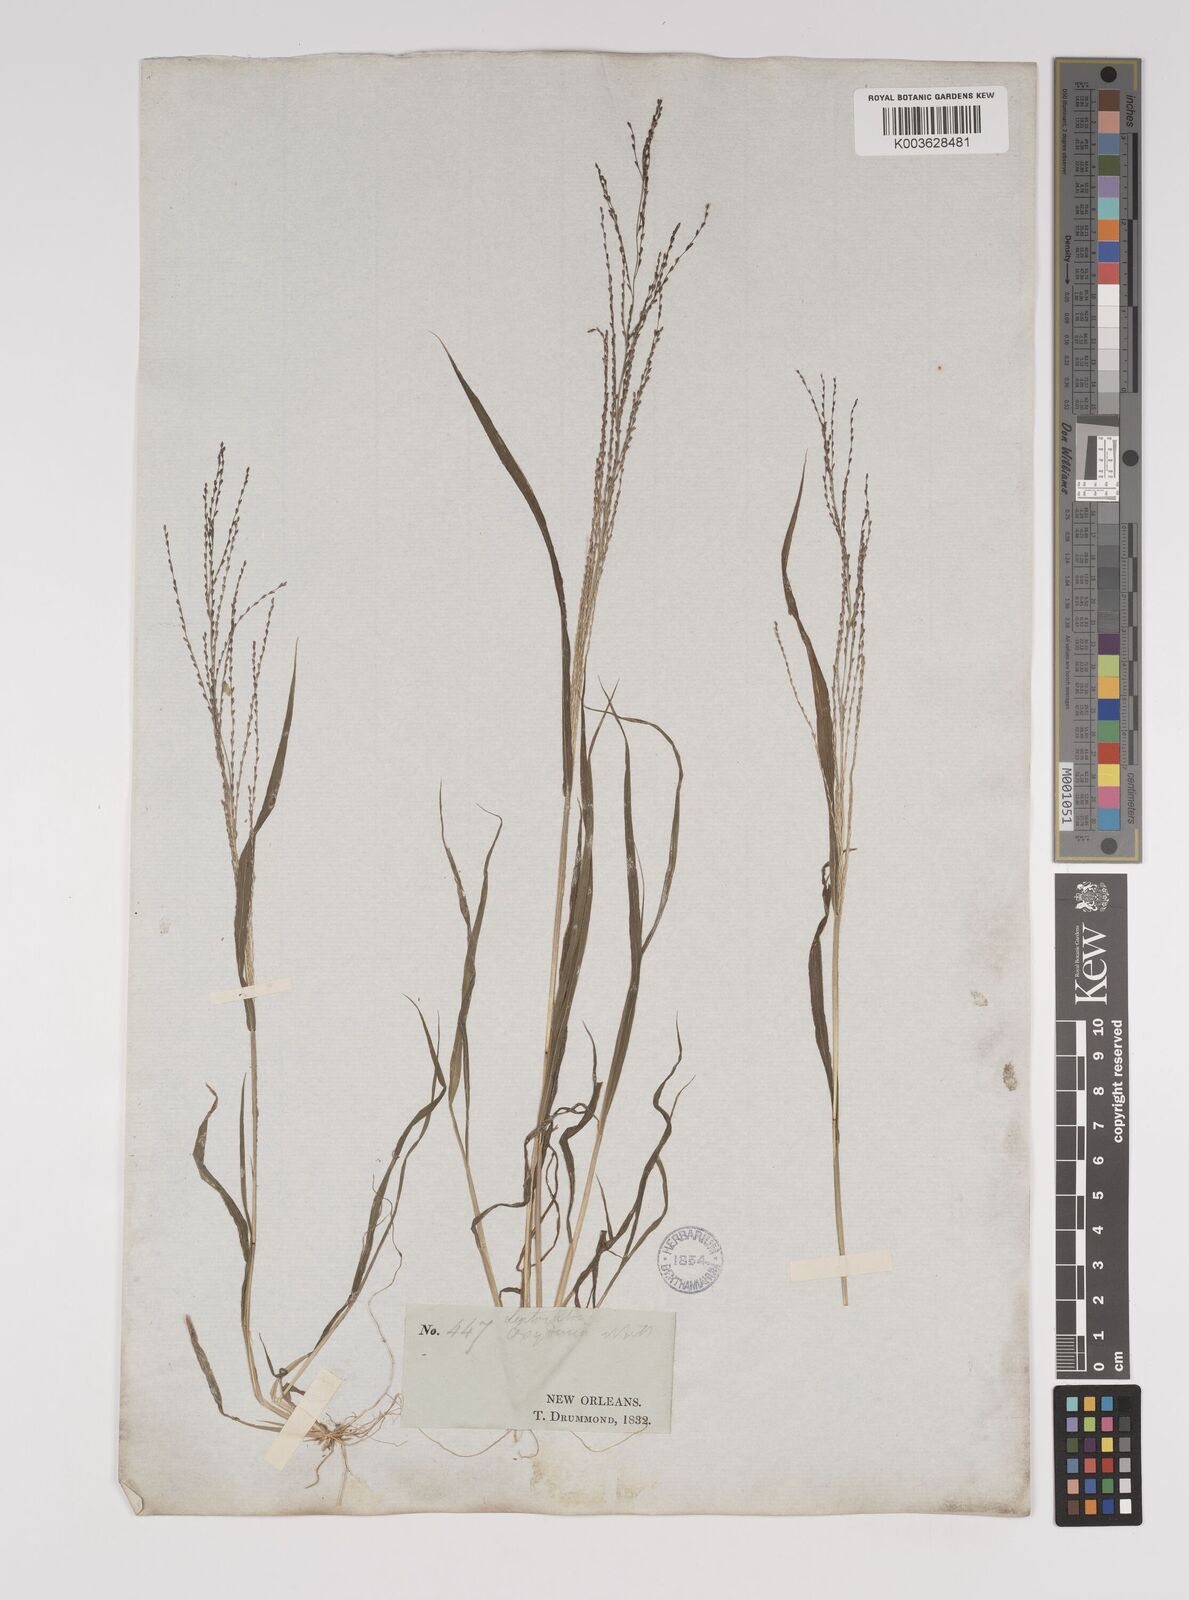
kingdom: Plantae
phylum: Tracheophyta
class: Liliopsida
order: Poales
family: Poaceae
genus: Leptochloa
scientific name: Leptochloa panicea
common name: Mucronate sprangletop
